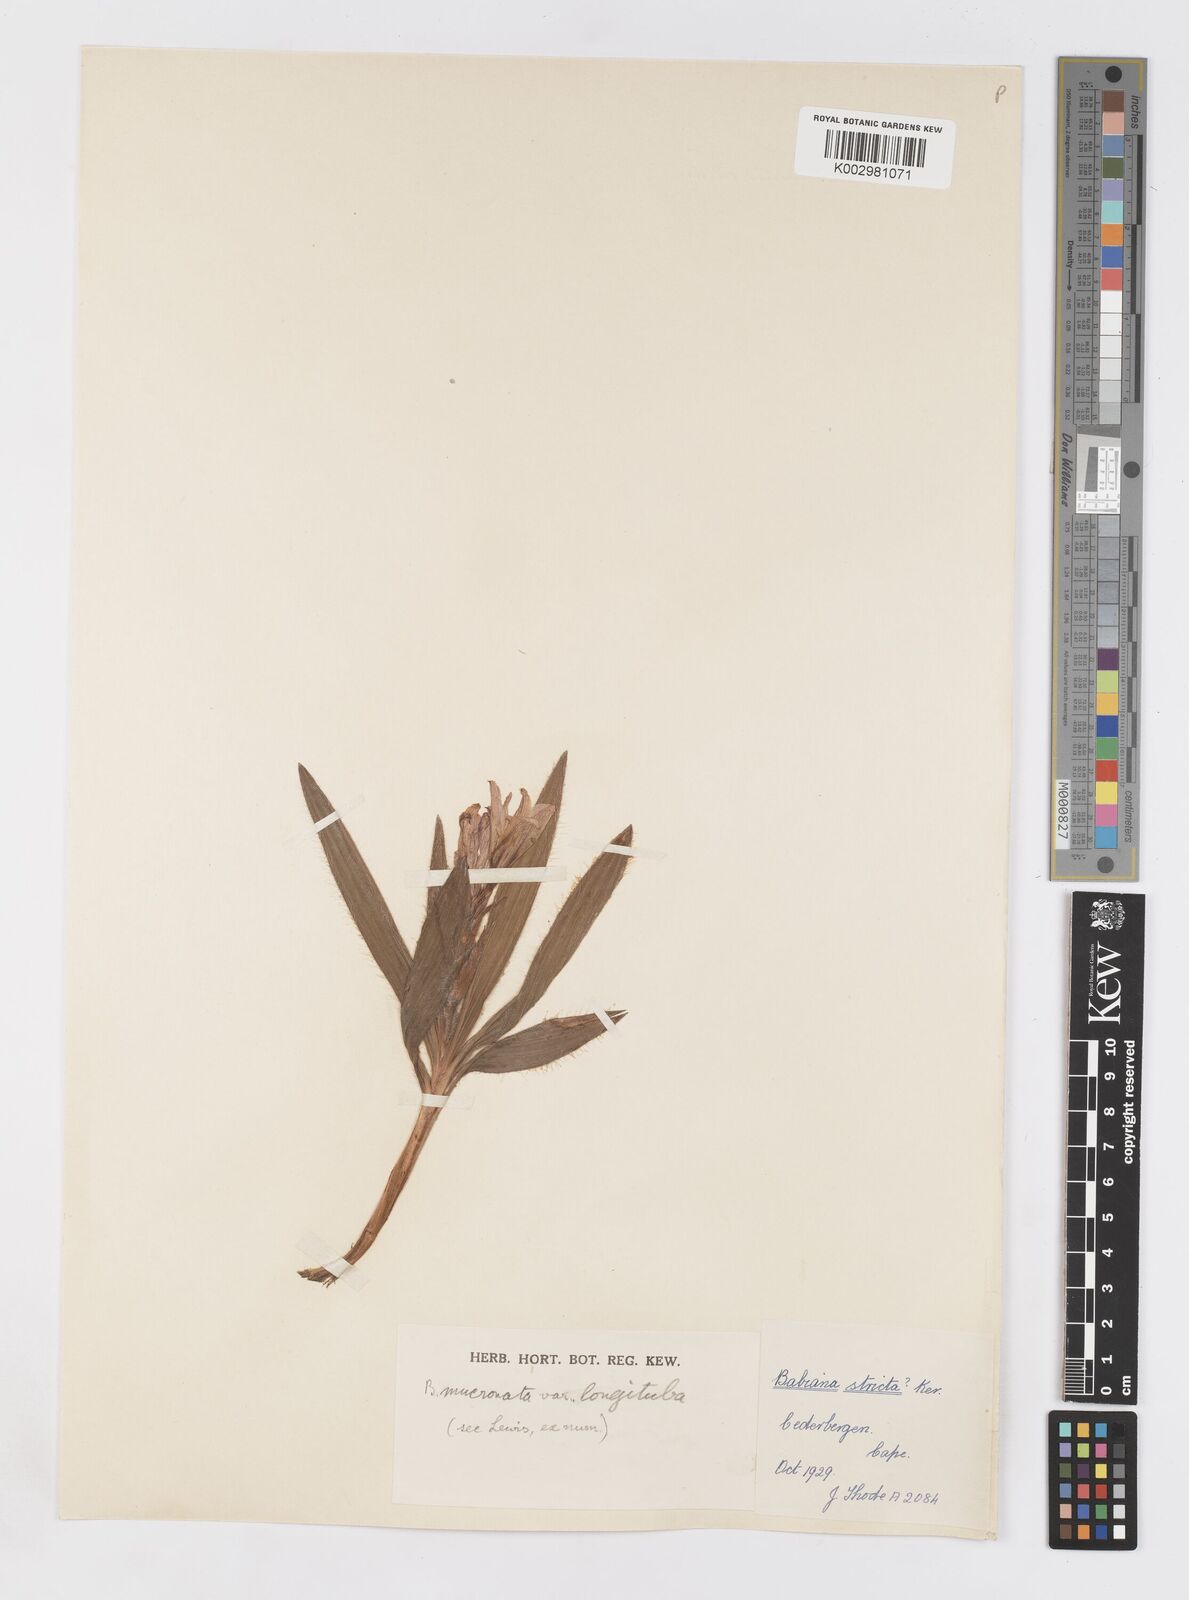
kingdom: Plantae
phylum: Tracheophyta
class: Liliopsida
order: Asparagales
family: Iridaceae
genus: Babiana
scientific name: Babiana mucronata
